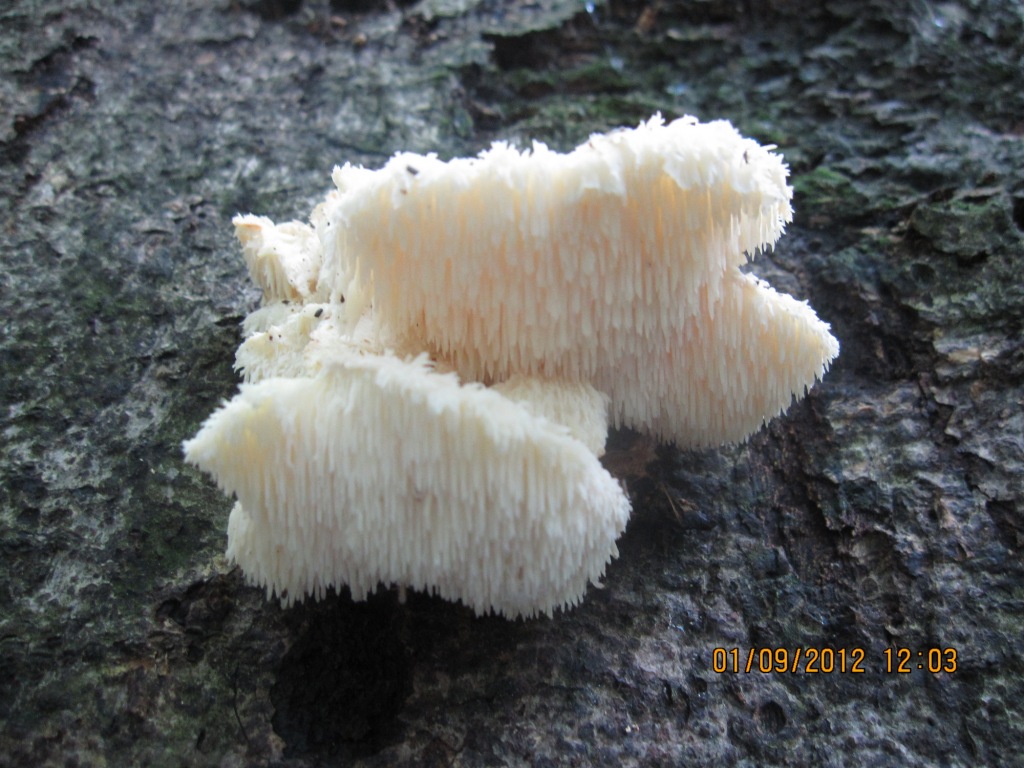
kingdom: Fungi
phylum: Basidiomycota
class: Agaricomycetes
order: Russulales
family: Hericiaceae
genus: Hericium
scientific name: Hericium cirrhatum
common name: børstepigsvamp
